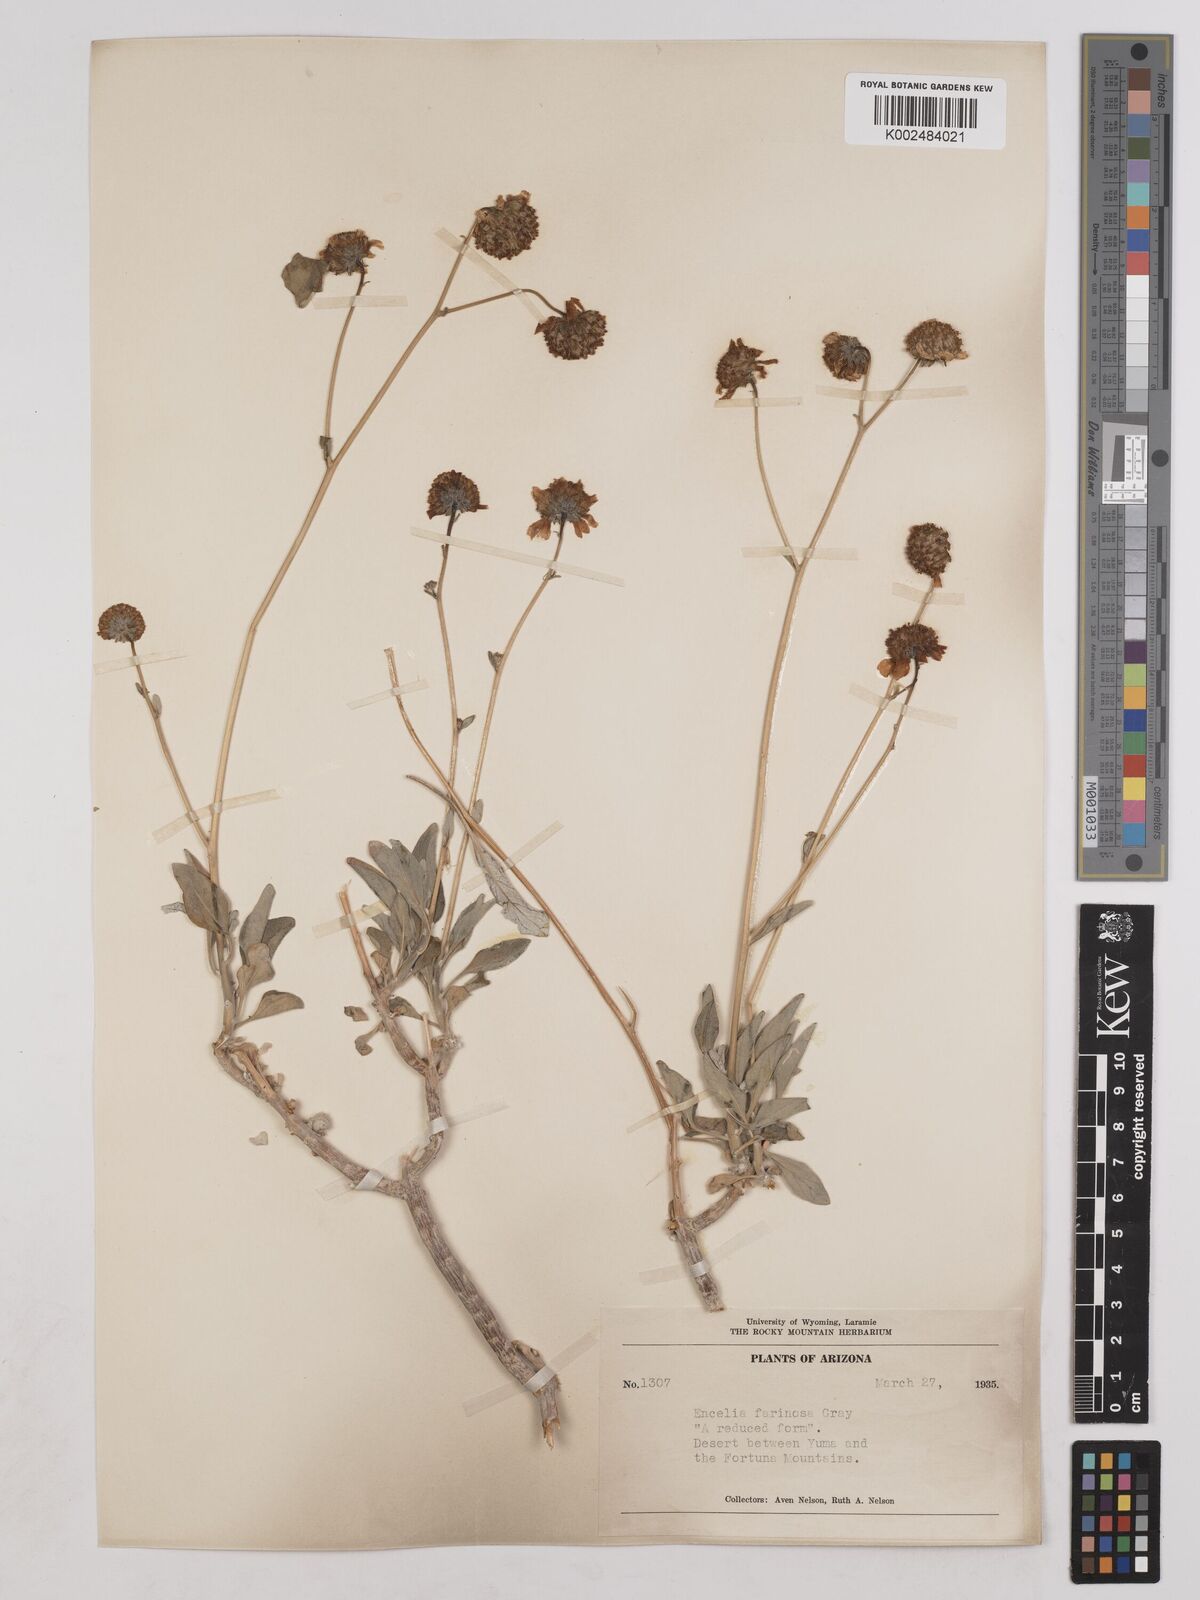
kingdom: Plantae
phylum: Tracheophyta
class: Magnoliopsida
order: Asterales
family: Asteraceae
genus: Encelia
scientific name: Encelia farinosa
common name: Brittlebush
